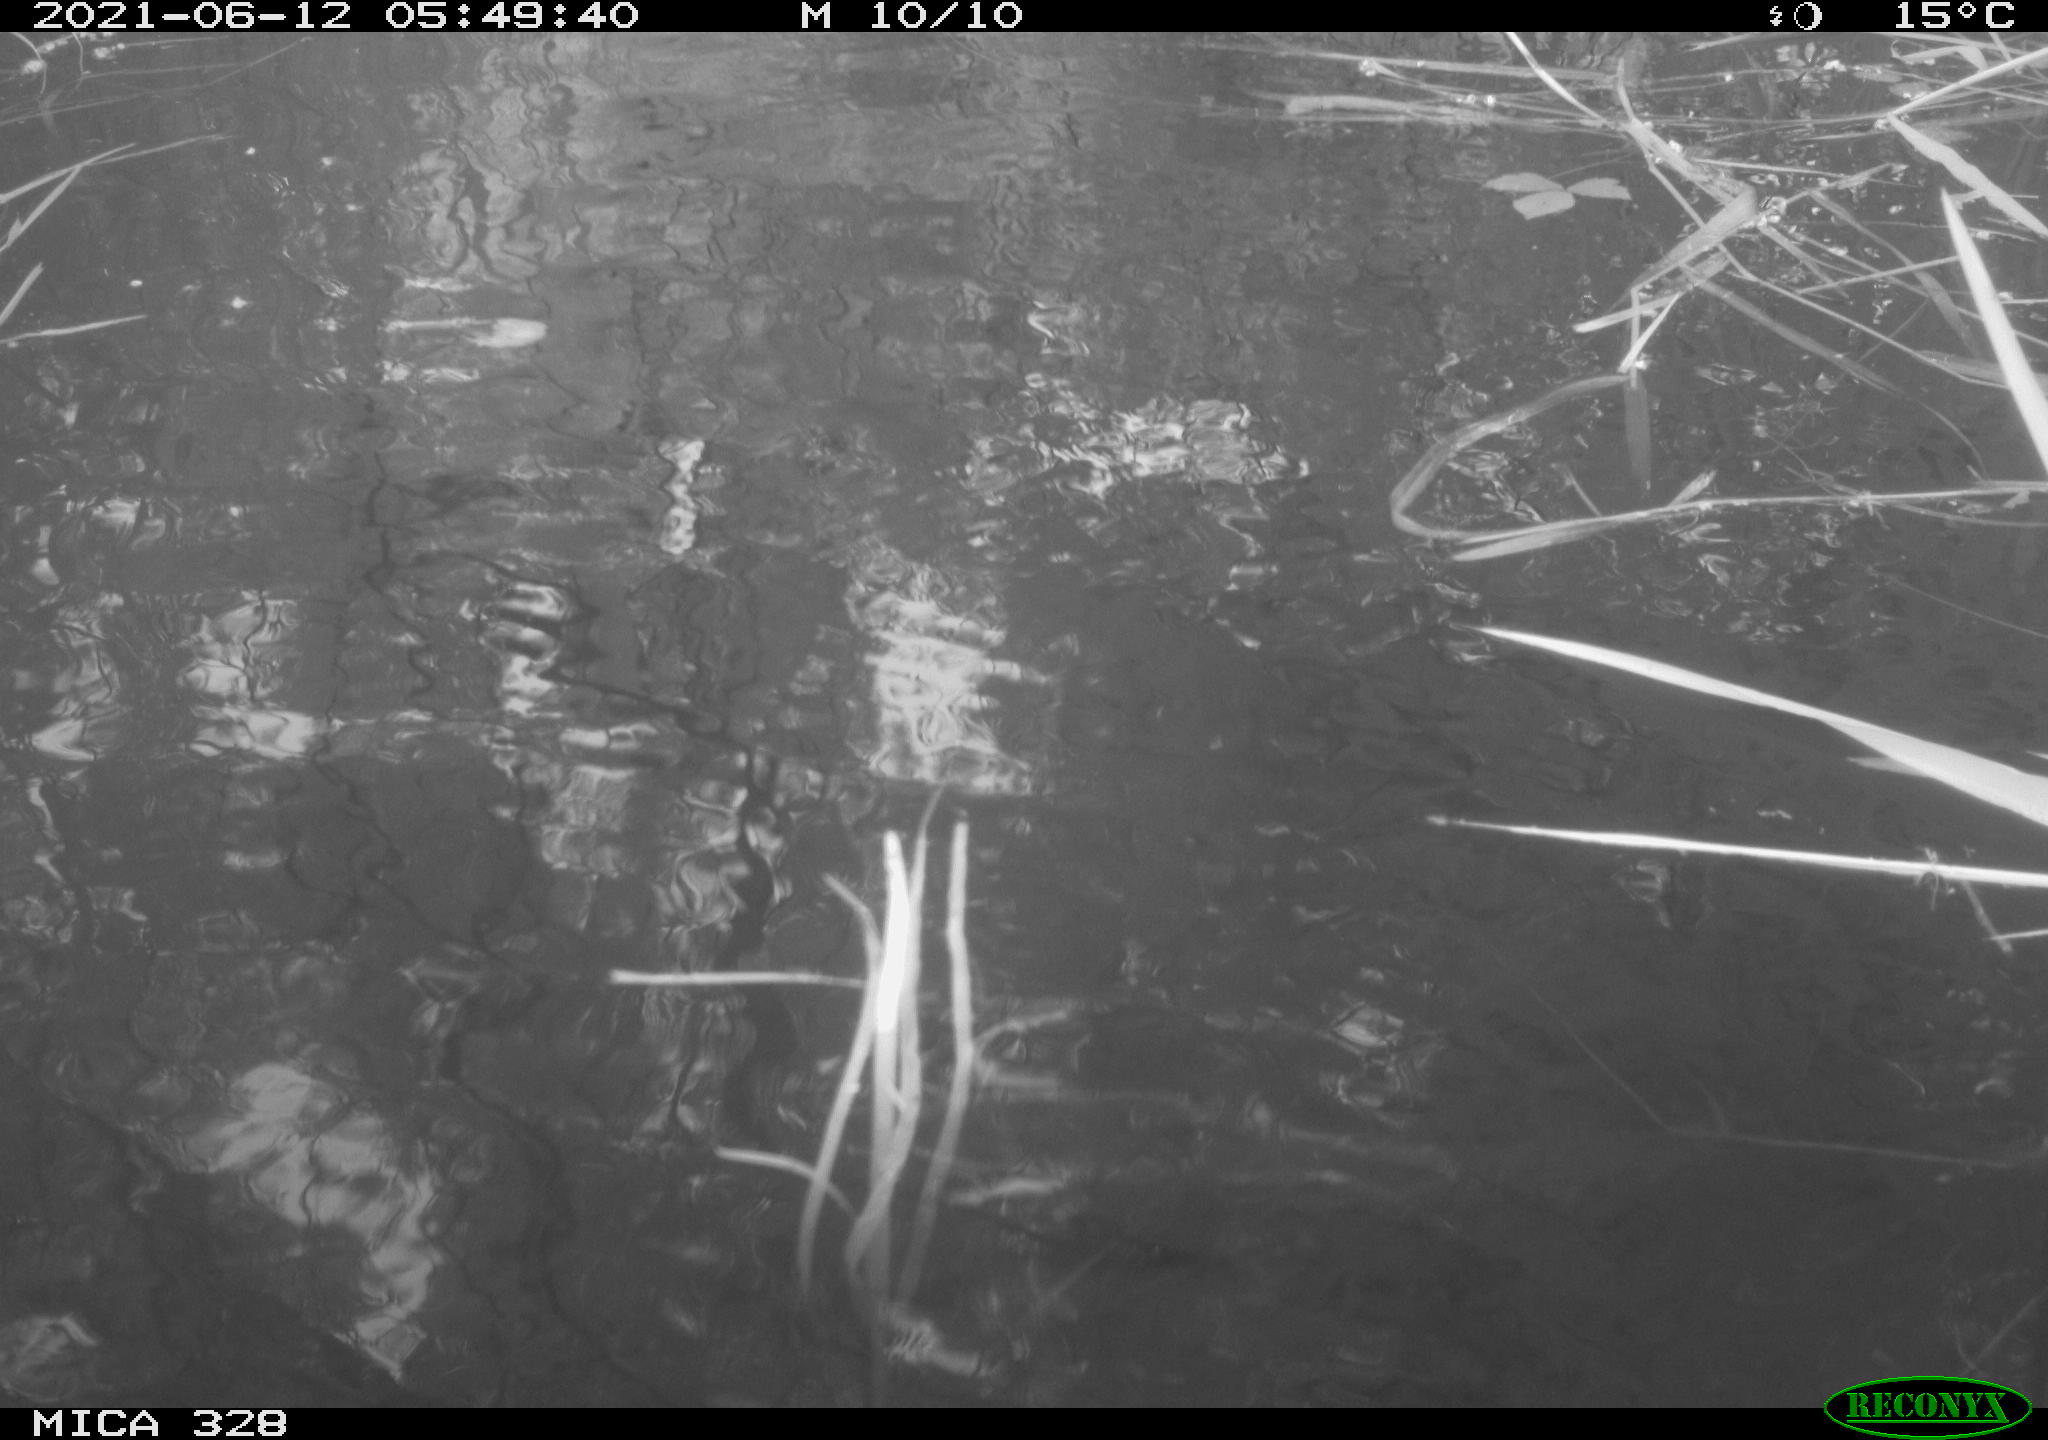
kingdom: Animalia
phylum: Chordata
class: Aves
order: Anseriformes
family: Anatidae
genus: Aix
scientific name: Aix galericulata
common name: Mandarin duck
